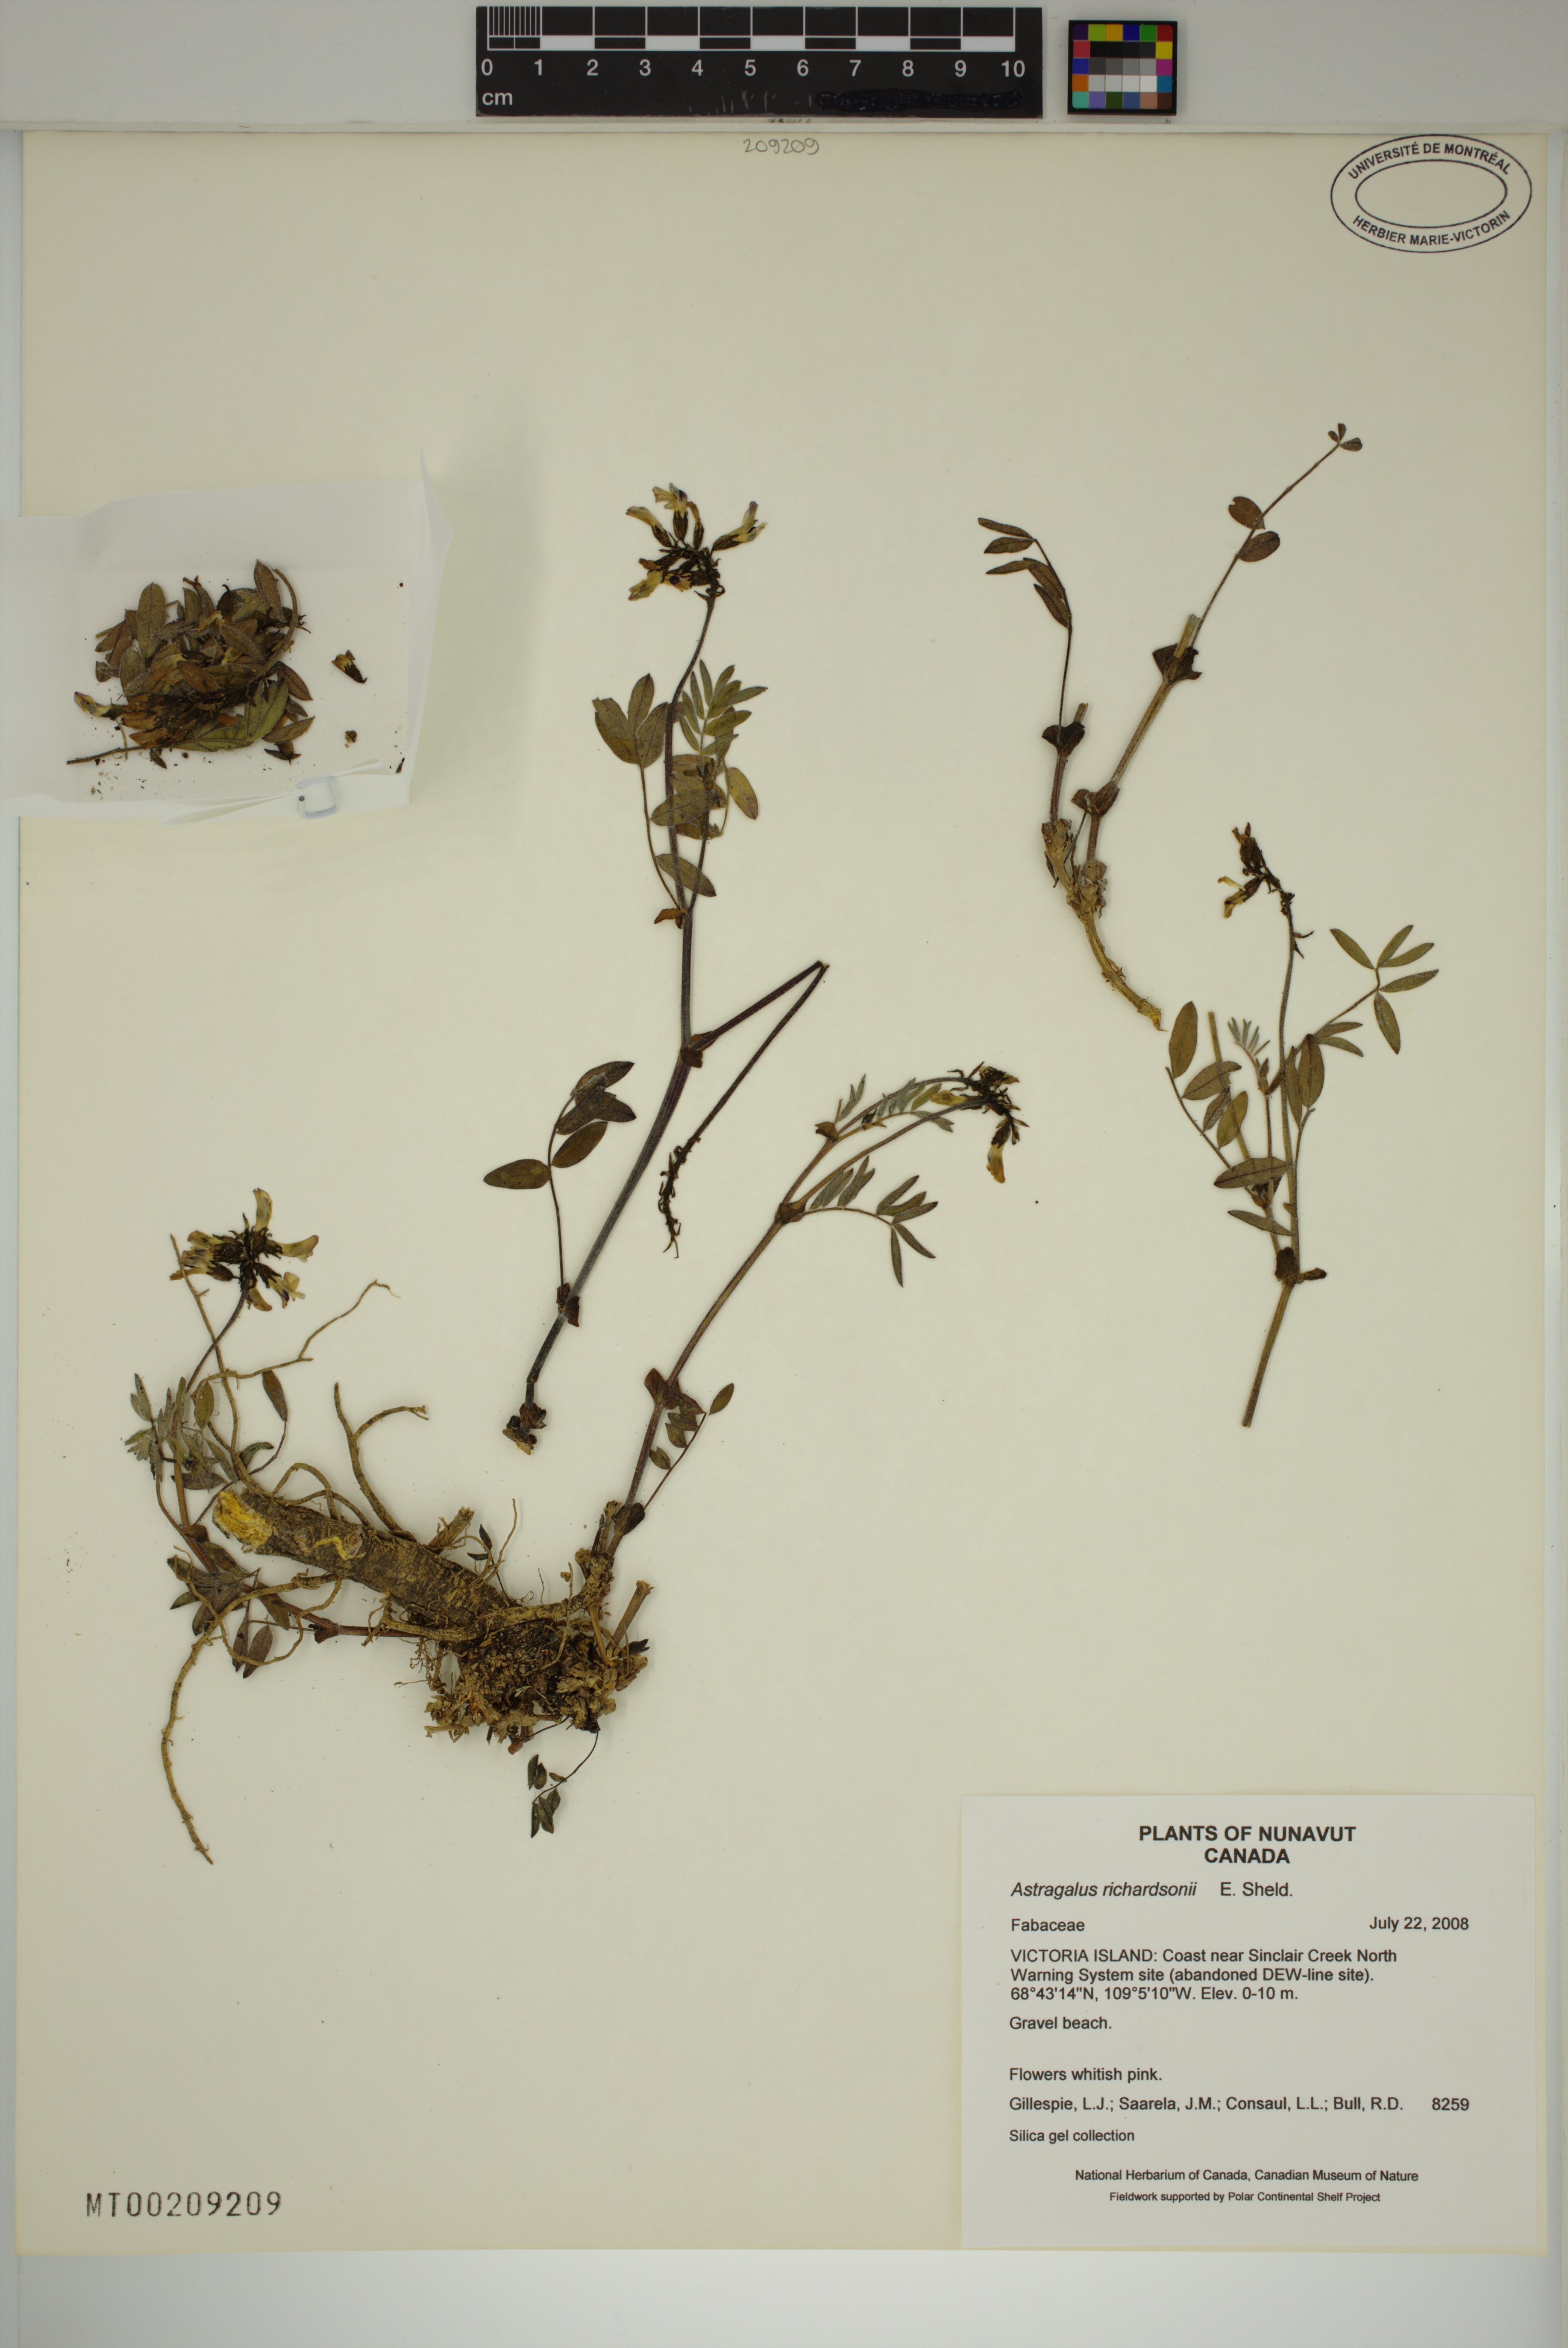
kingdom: Plantae
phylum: Tracheophyta
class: Magnoliopsida
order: Fabales
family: Fabaceae
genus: Astragalus
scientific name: Astragalus hallii
